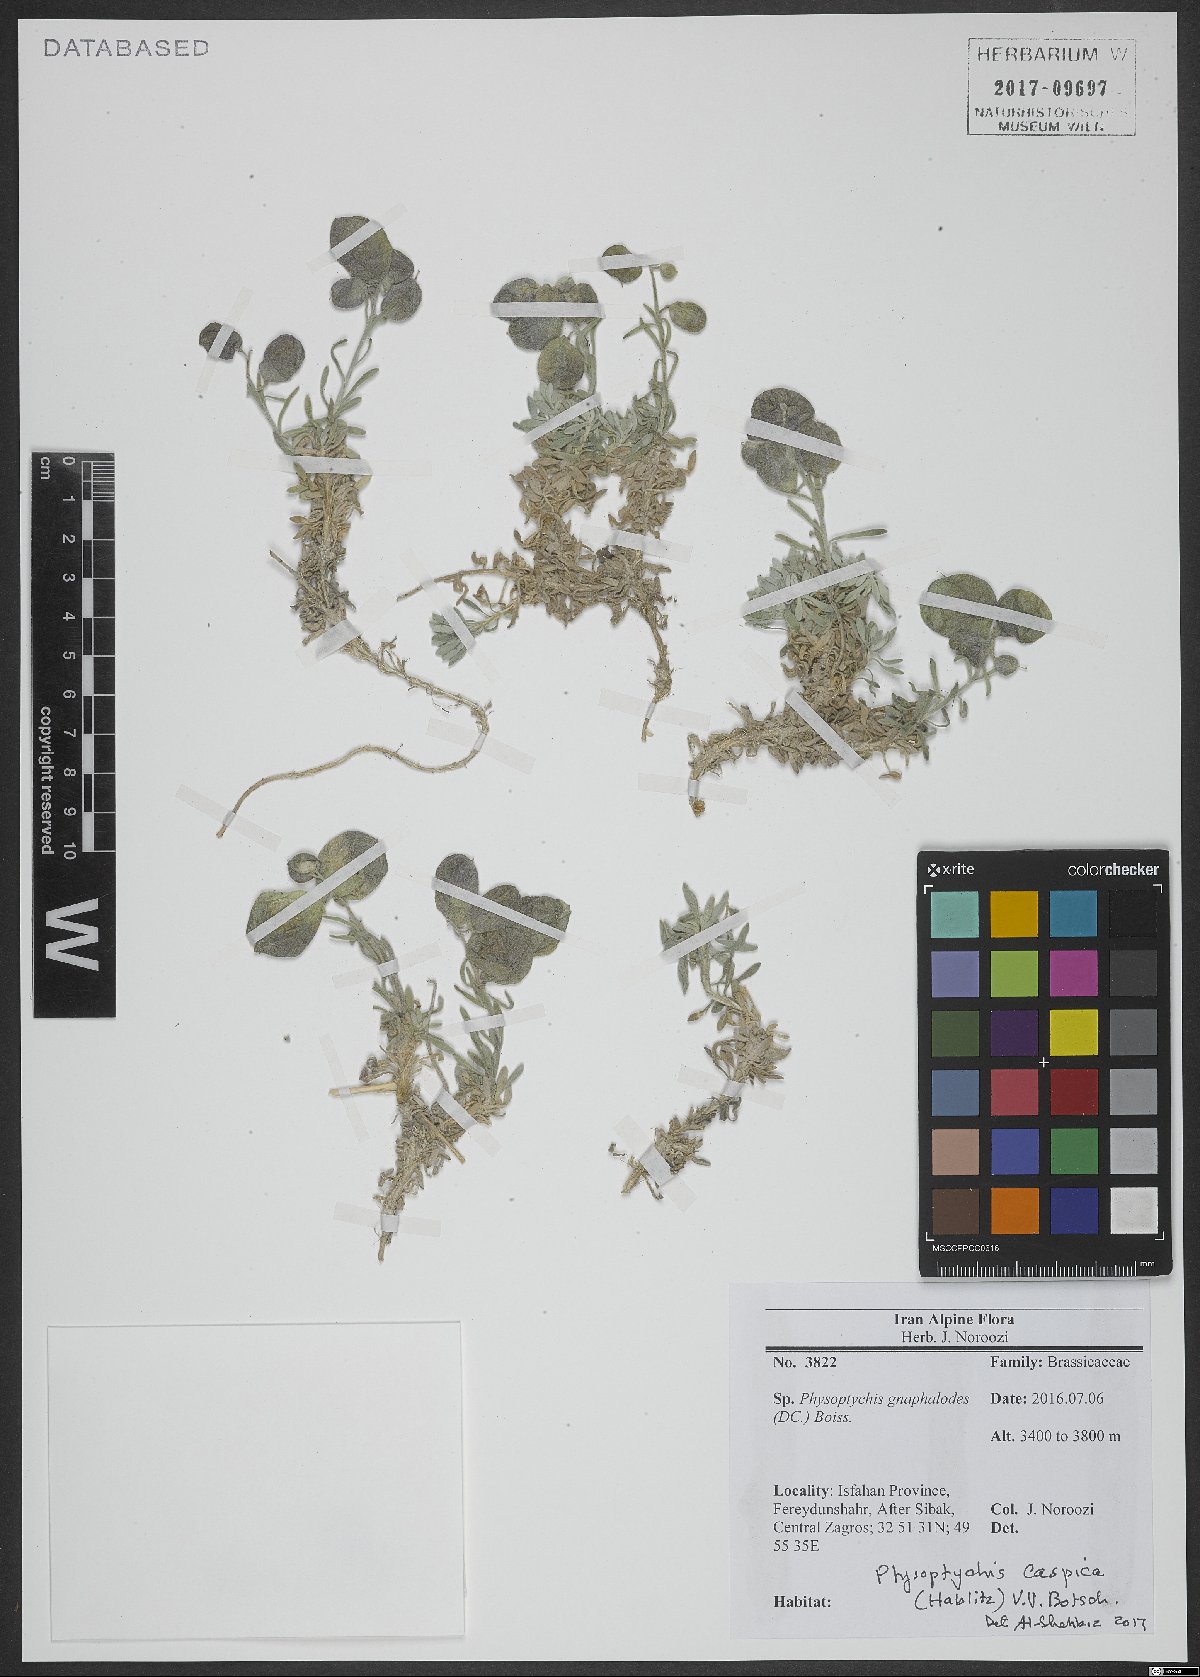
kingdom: Plantae
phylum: Tracheophyta
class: Magnoliopsida
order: Brassicales
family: Brassicaceae
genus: Physoptychis
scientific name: Physoptychis caspica
